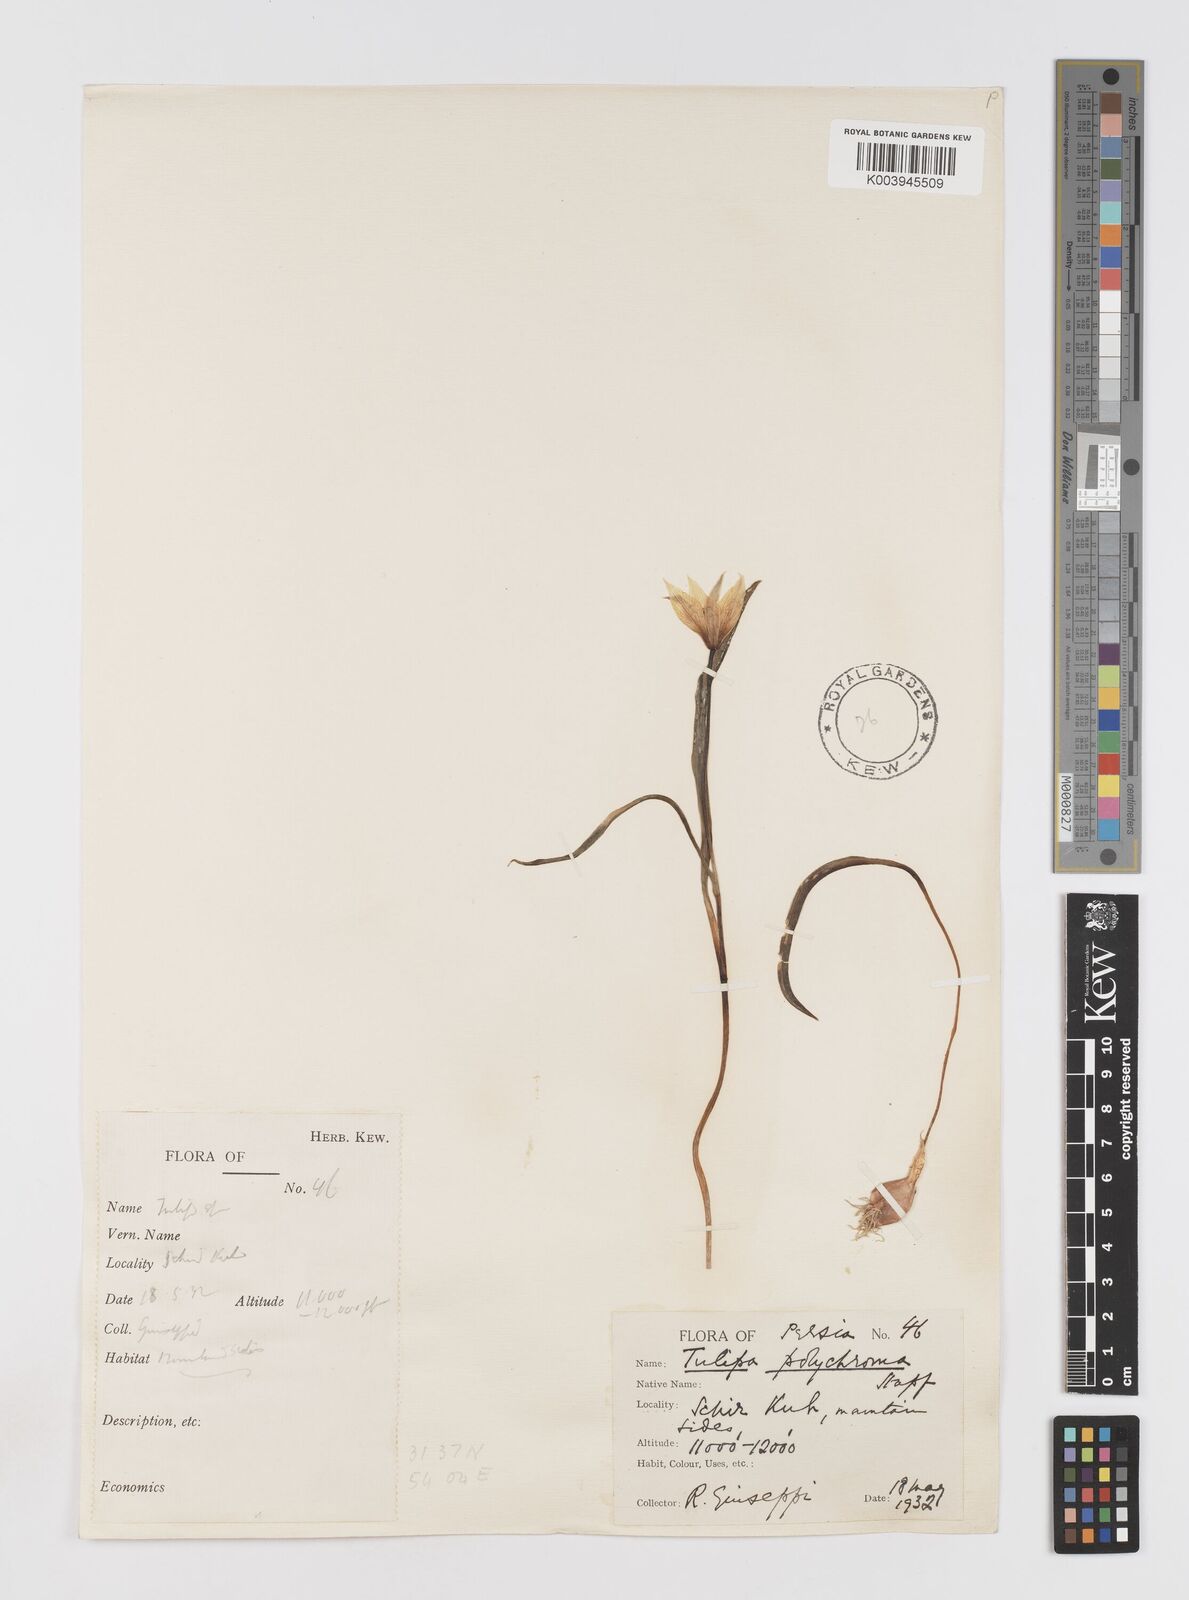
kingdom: Plantae
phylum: Tracheophyta
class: Liliopsida
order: Liliales
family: Liliaceae
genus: Tulipa
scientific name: Tulipa biflora
